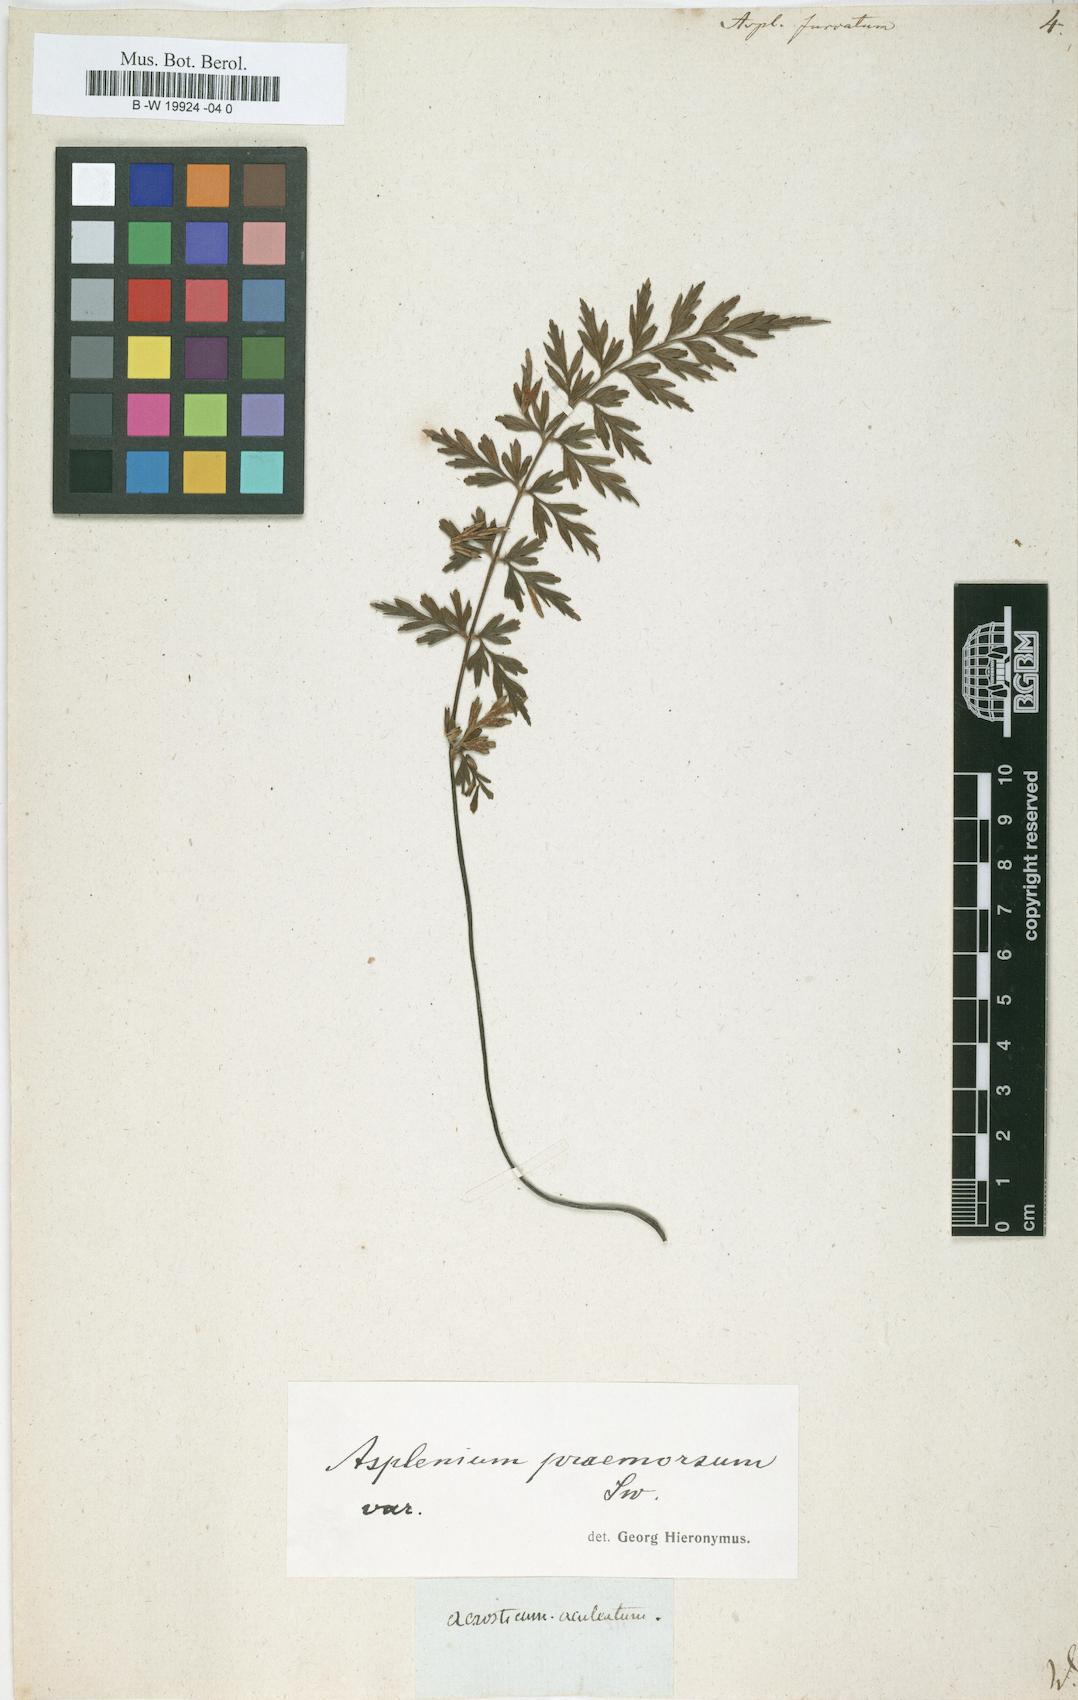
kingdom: Plantae
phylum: Tracheophyta
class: Polypodiopsida
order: Polypodiales
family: Aspleniaceae
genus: Asplenium
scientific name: Asplenium furcatum
